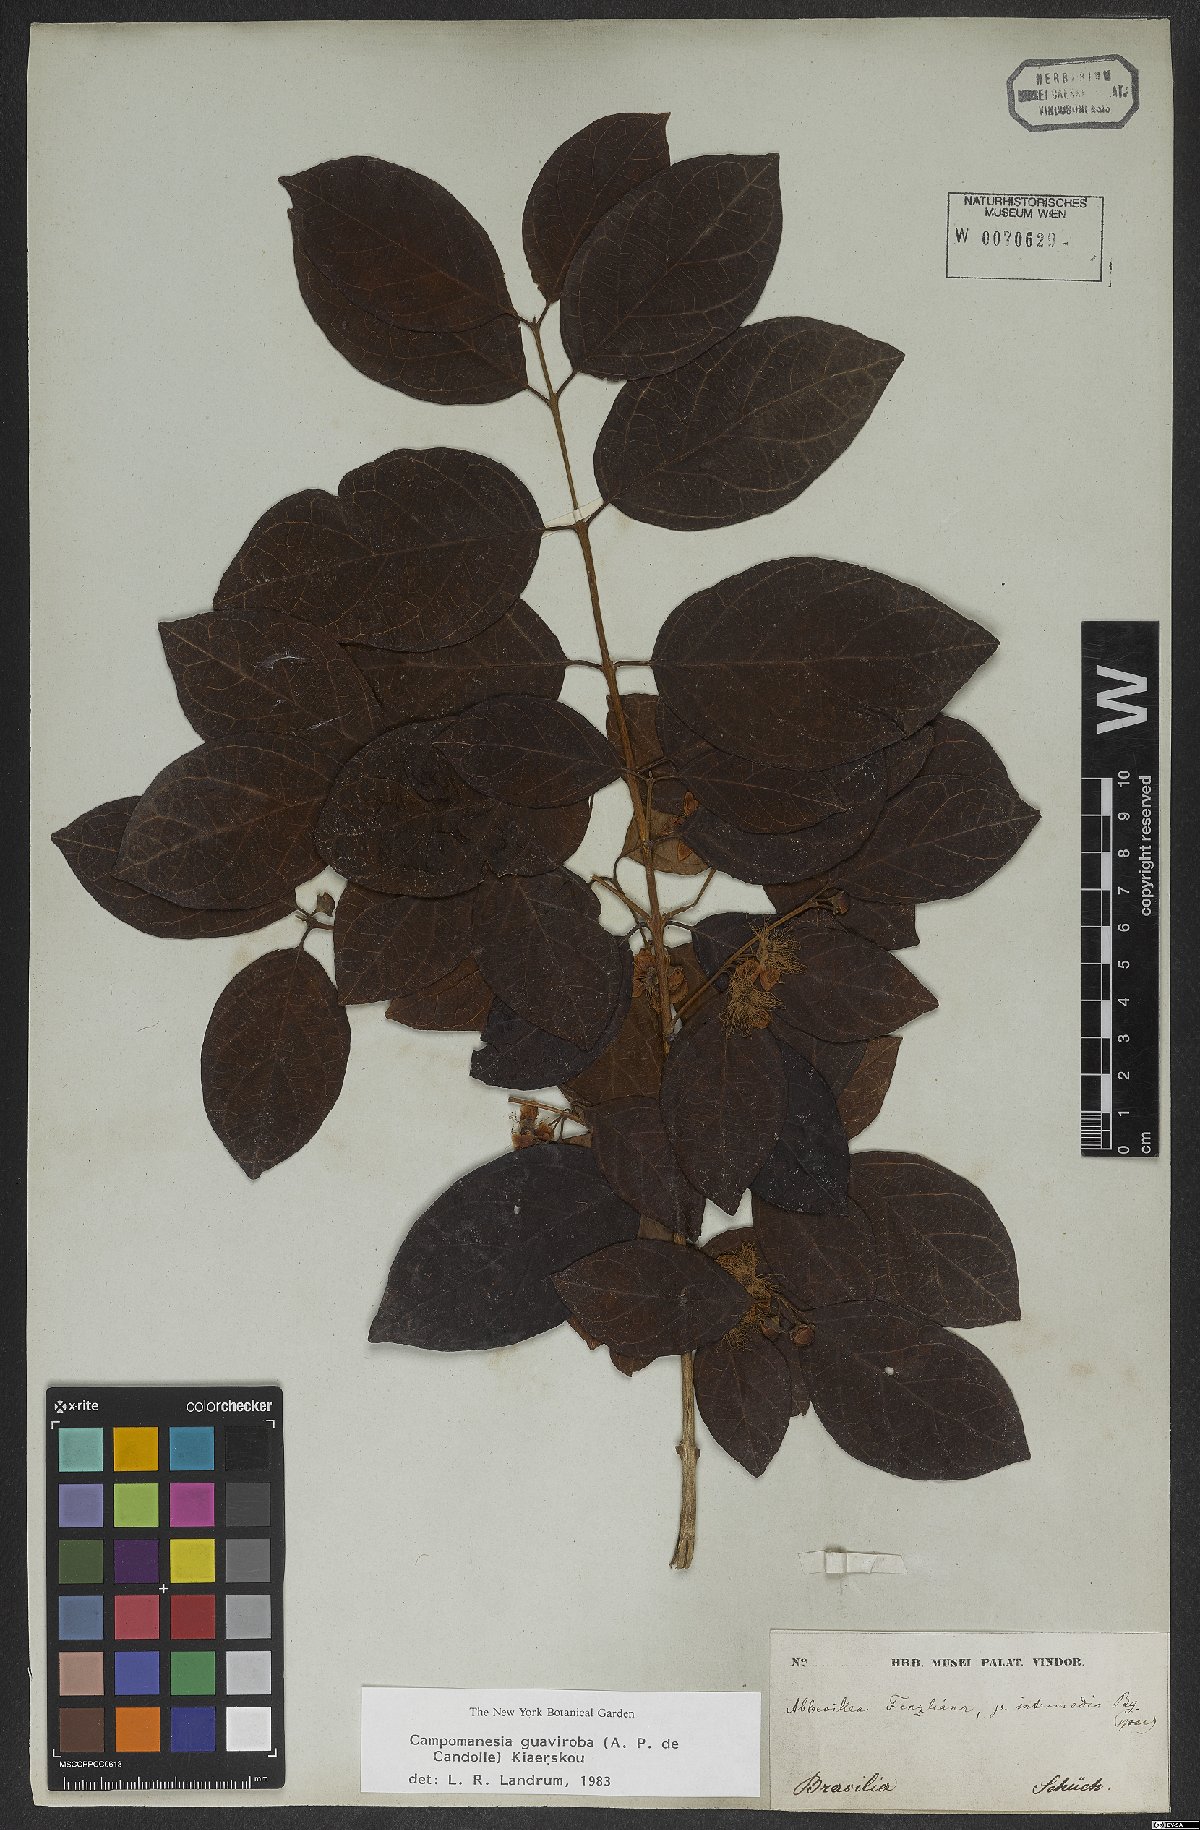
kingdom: Plantae
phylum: Tracheophyta
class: Magnoliopsida
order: Myrtales
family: Myrtaceae
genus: Campomanesia
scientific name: Campomanesia guaviroba
